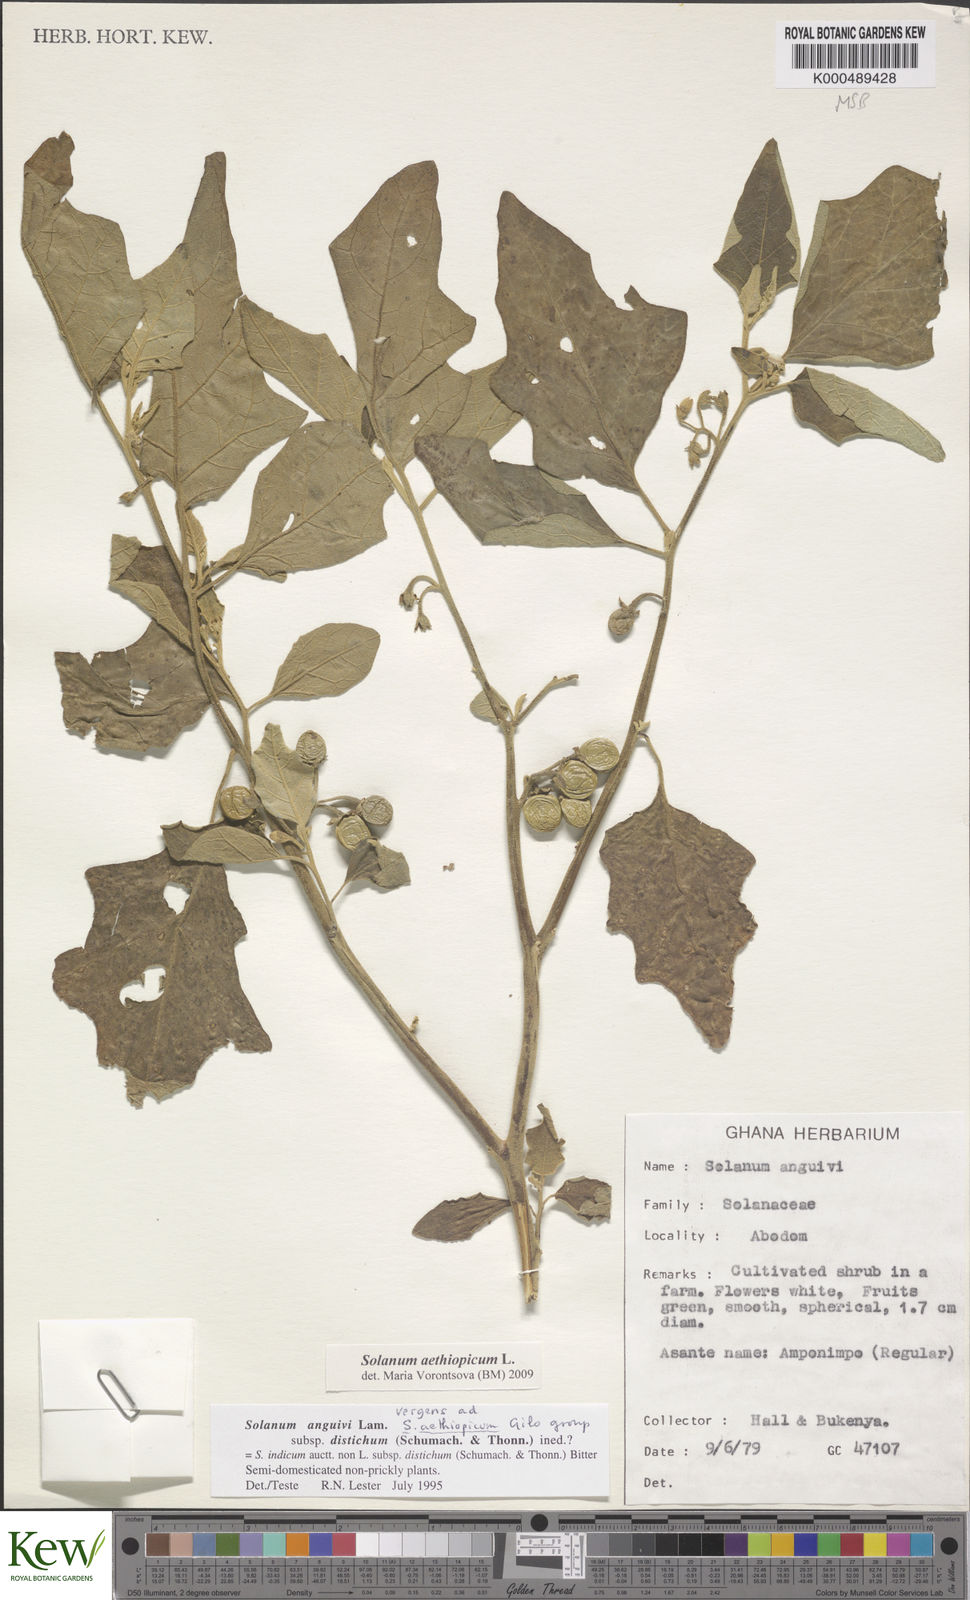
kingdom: Plantae
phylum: Tracheophyta
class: Magnoliopsida
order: Solanales
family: Solanaceae
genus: Solanum
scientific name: Solanum anguivi
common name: Forest bitterberry
